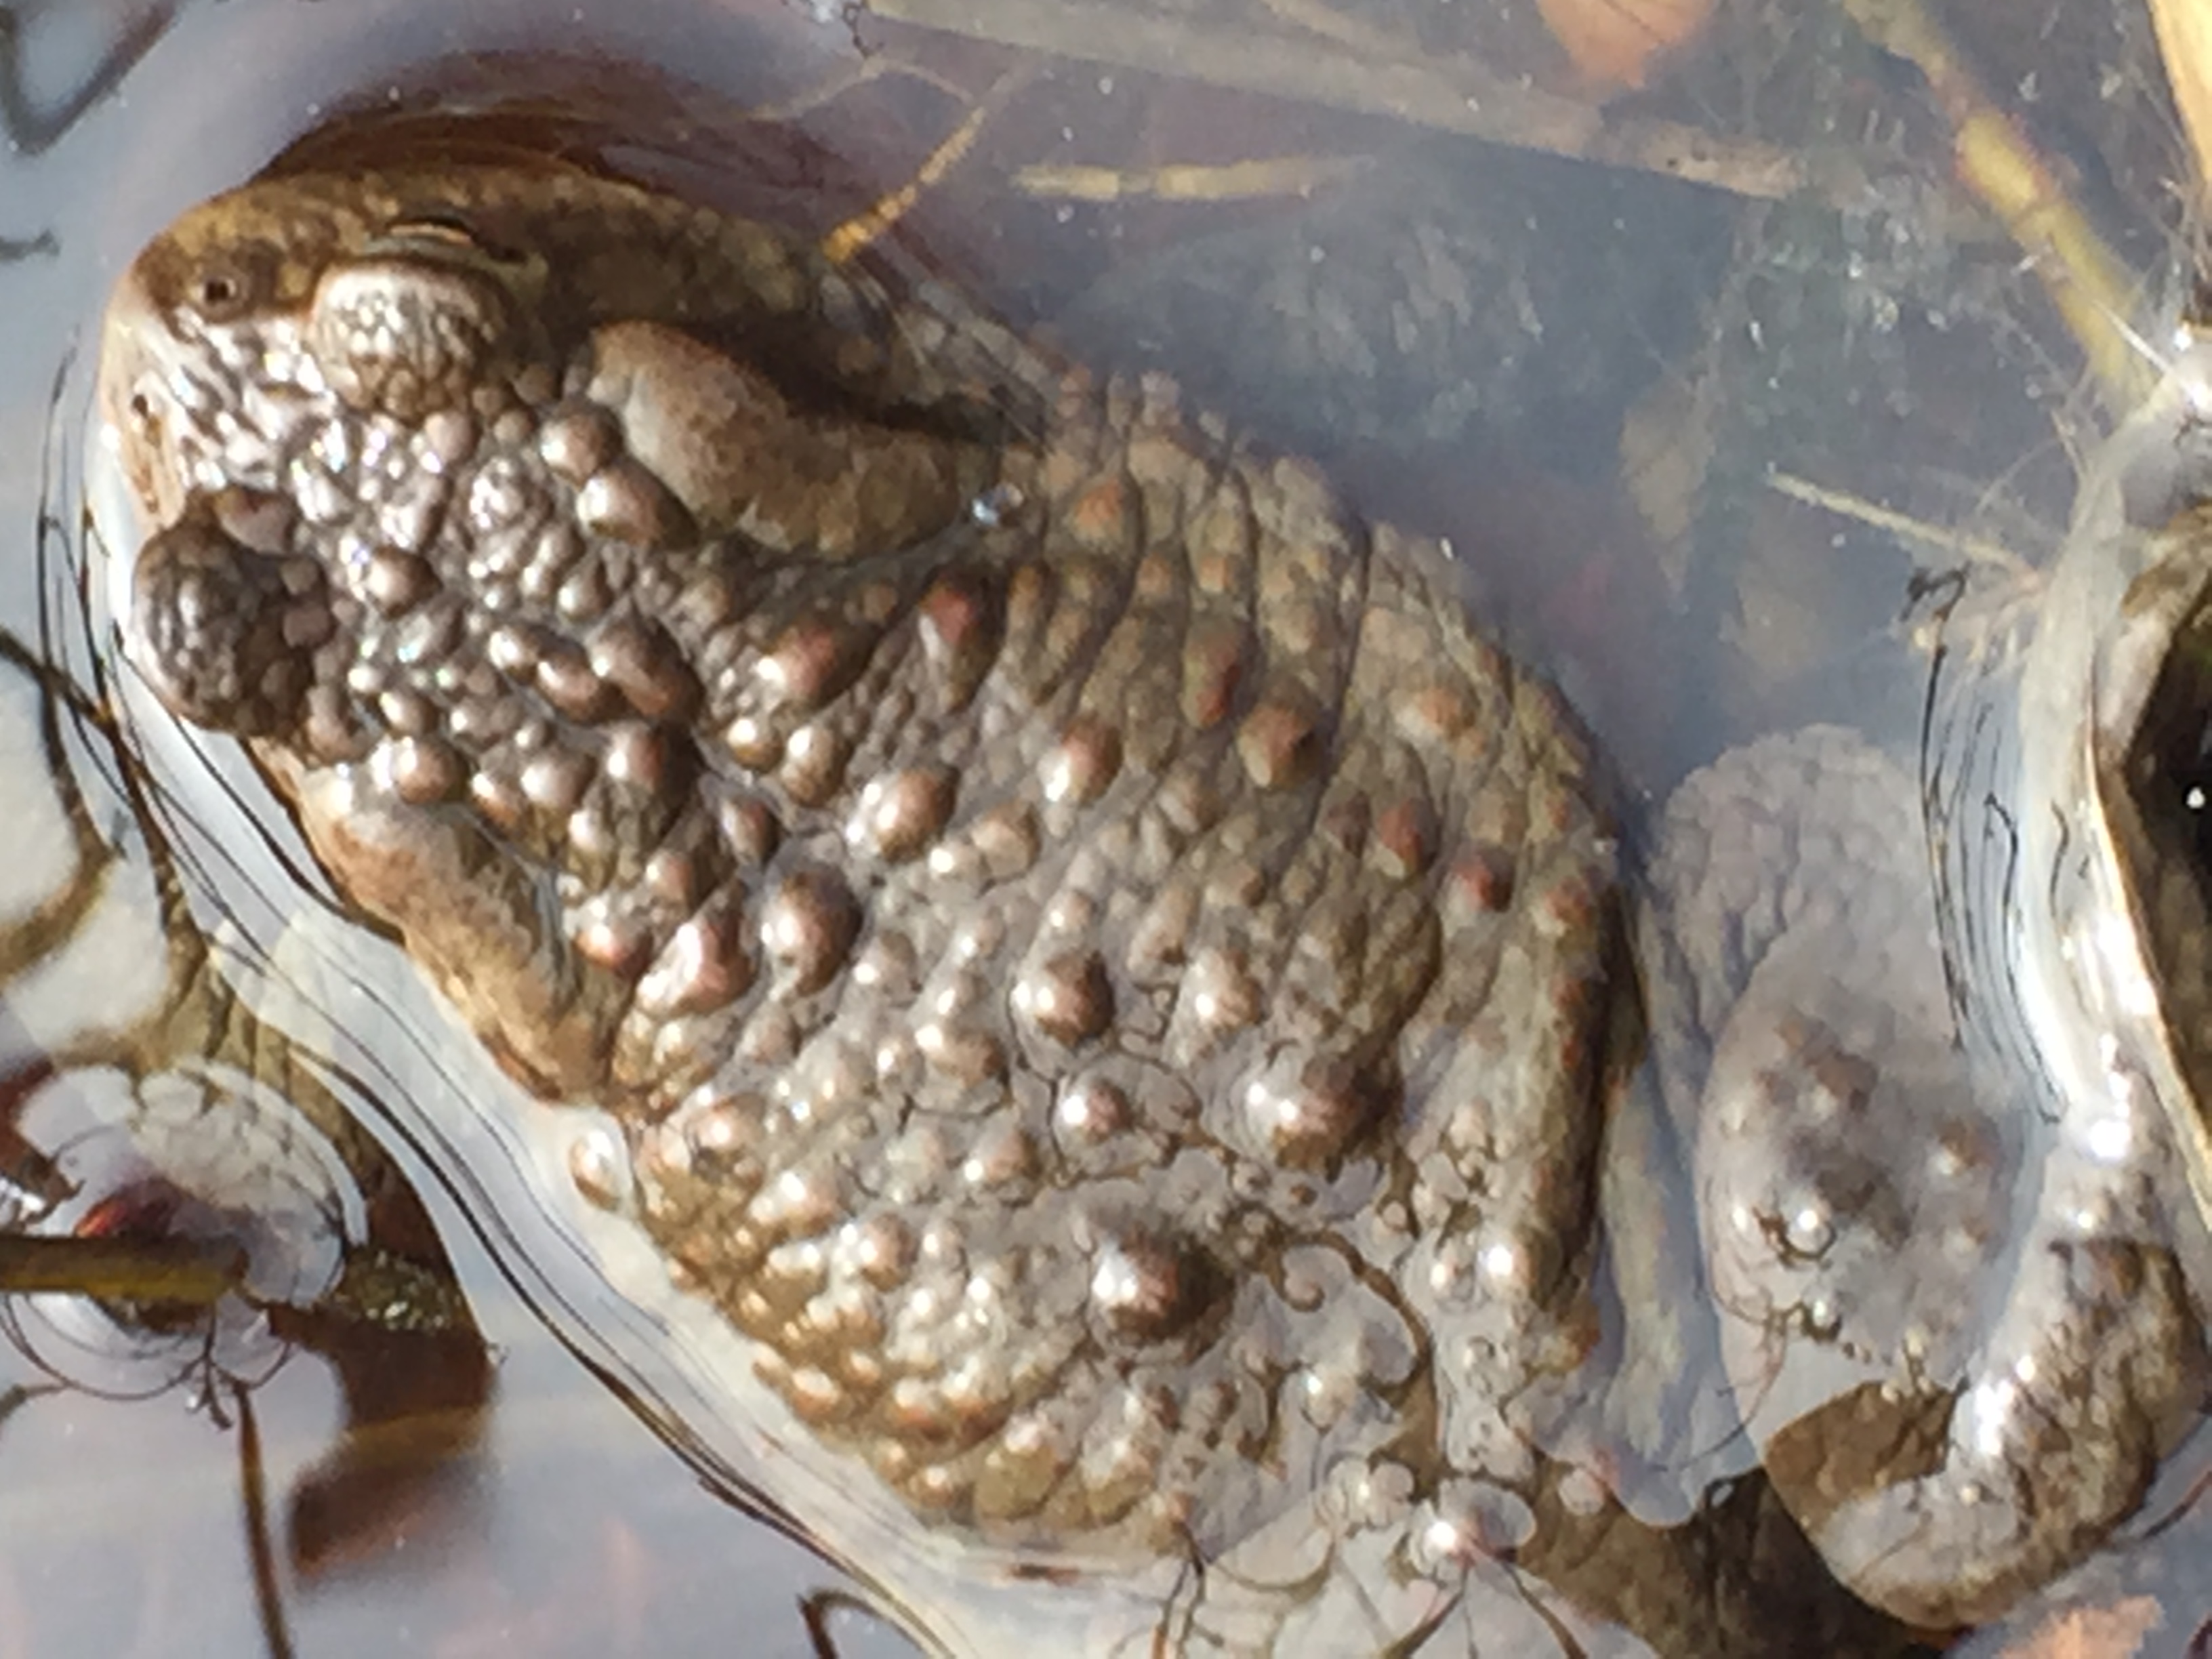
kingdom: Animalia
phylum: Chordata
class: Amphibia
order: Anura
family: Bufonidae
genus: Bufo
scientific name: Bufo bufo
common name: Common toad
